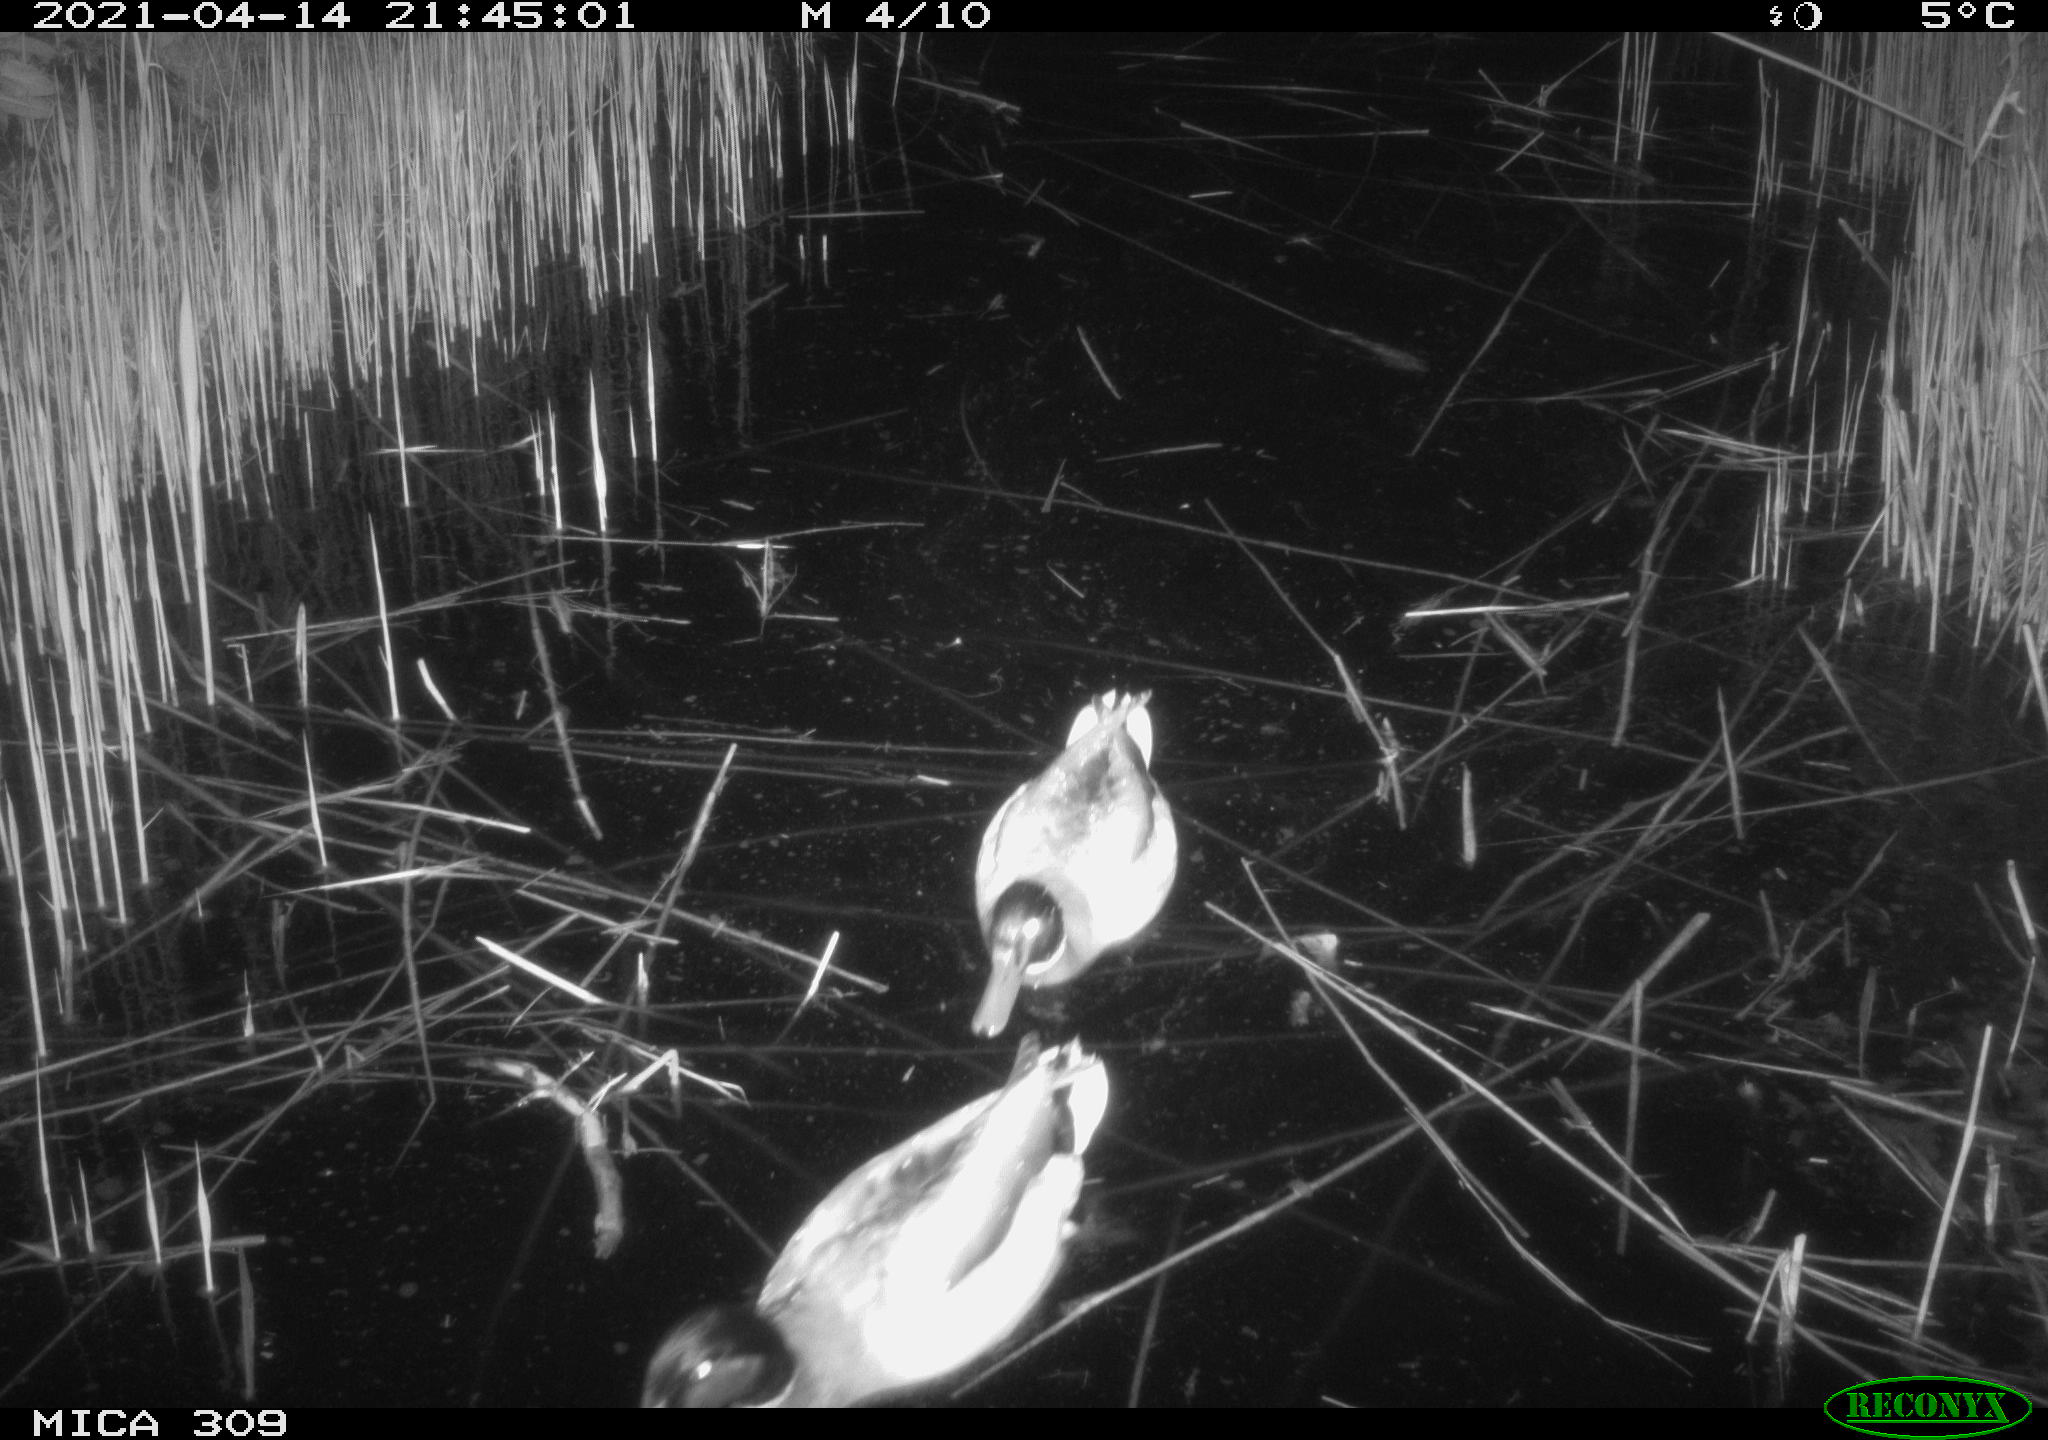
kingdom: Animalia
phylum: Chordata
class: Aves
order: Anseriformes
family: Anatidae
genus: Anas
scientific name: Anas platyrhynchos
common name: Mallard
